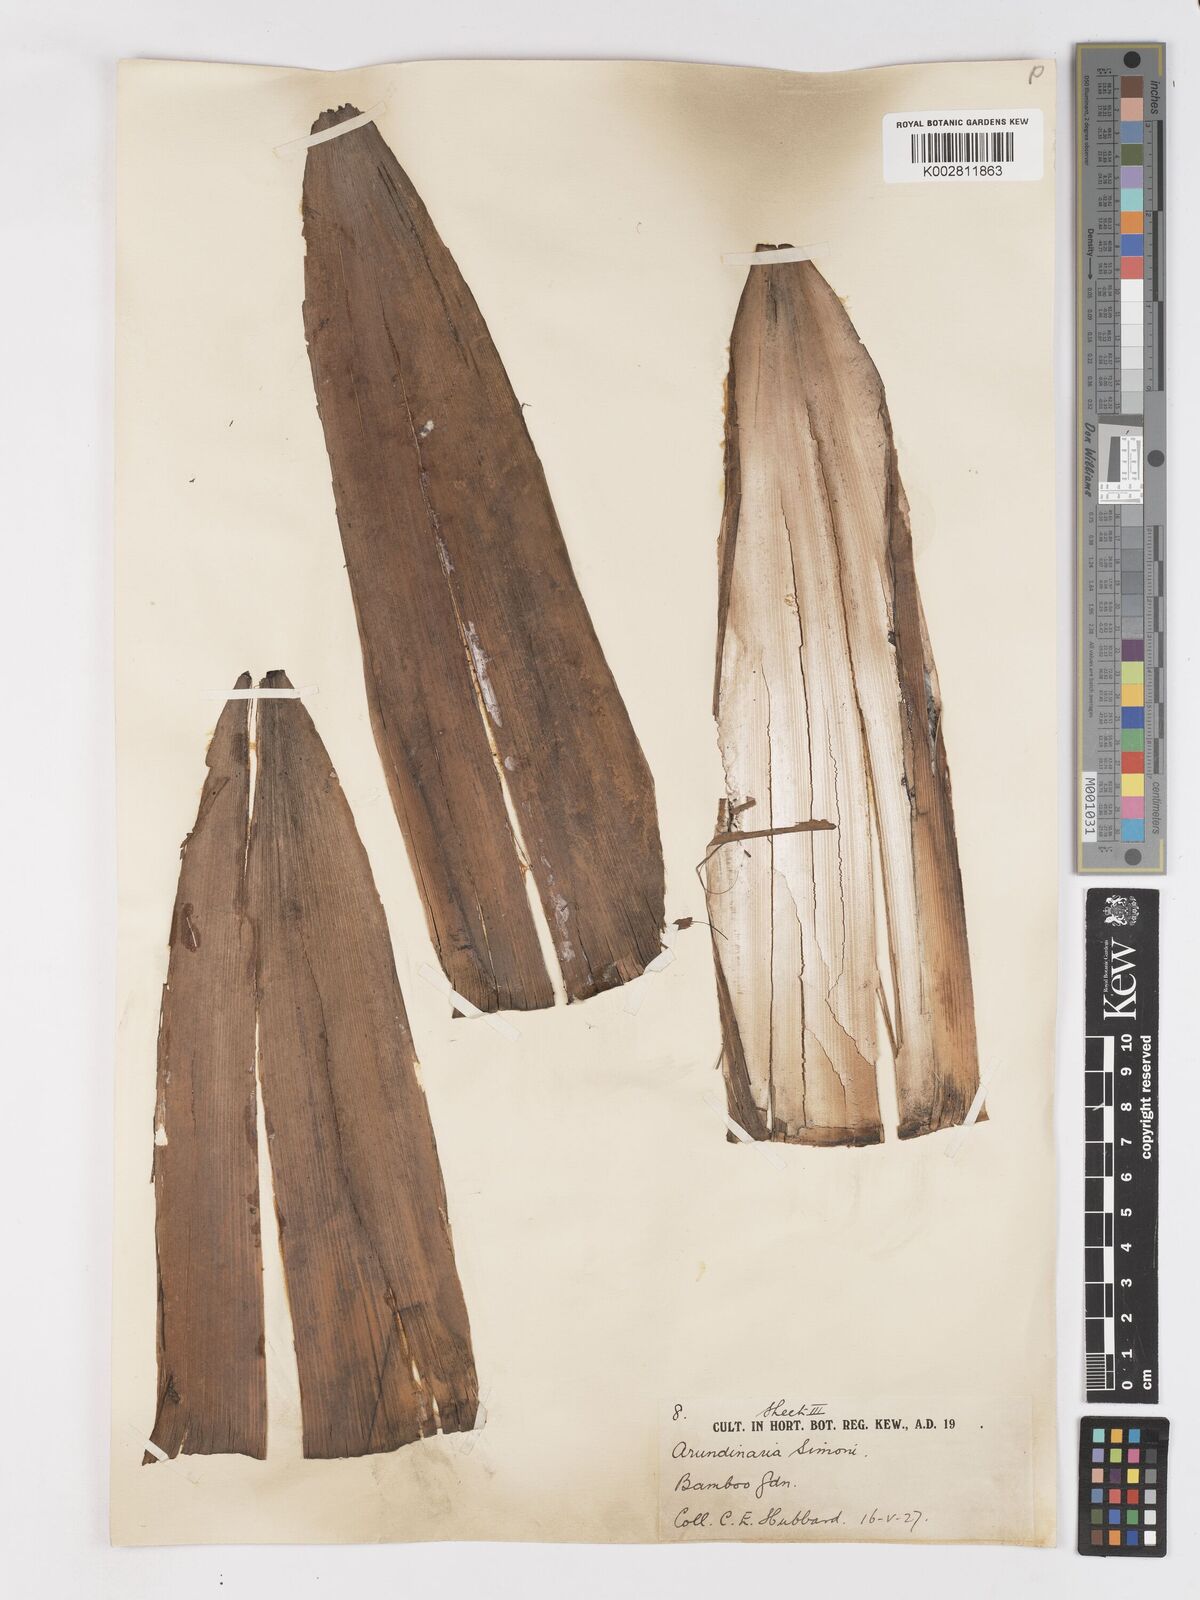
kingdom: Plantae
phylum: Tracheophyta
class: Liliopsida
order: Poales
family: Poaceae
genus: Pleioblastus
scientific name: Pleioblastus simonii
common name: Simon bamboo
